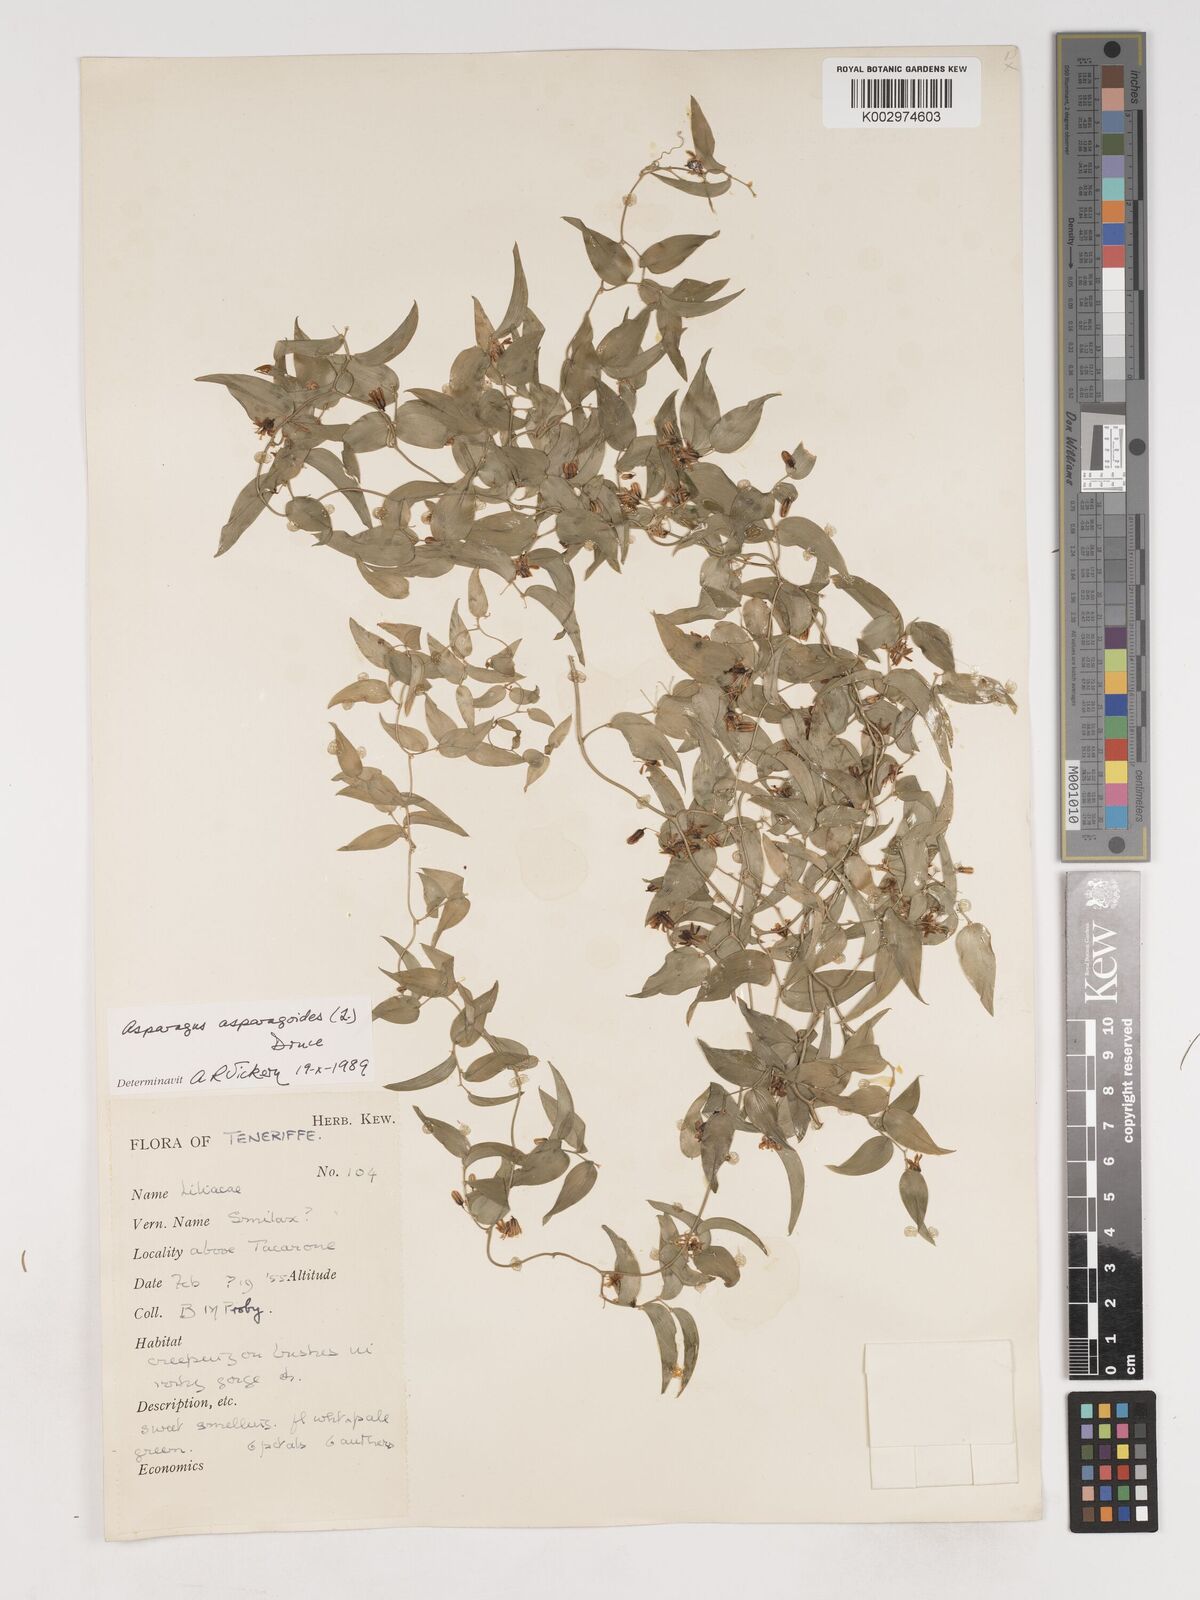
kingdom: Plantae
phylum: Tracheophyta
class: Liliopsida
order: Asparagales
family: Asparagaceae
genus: Asparagus
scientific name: Asparagus asparagoides
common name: African asparagus fern
